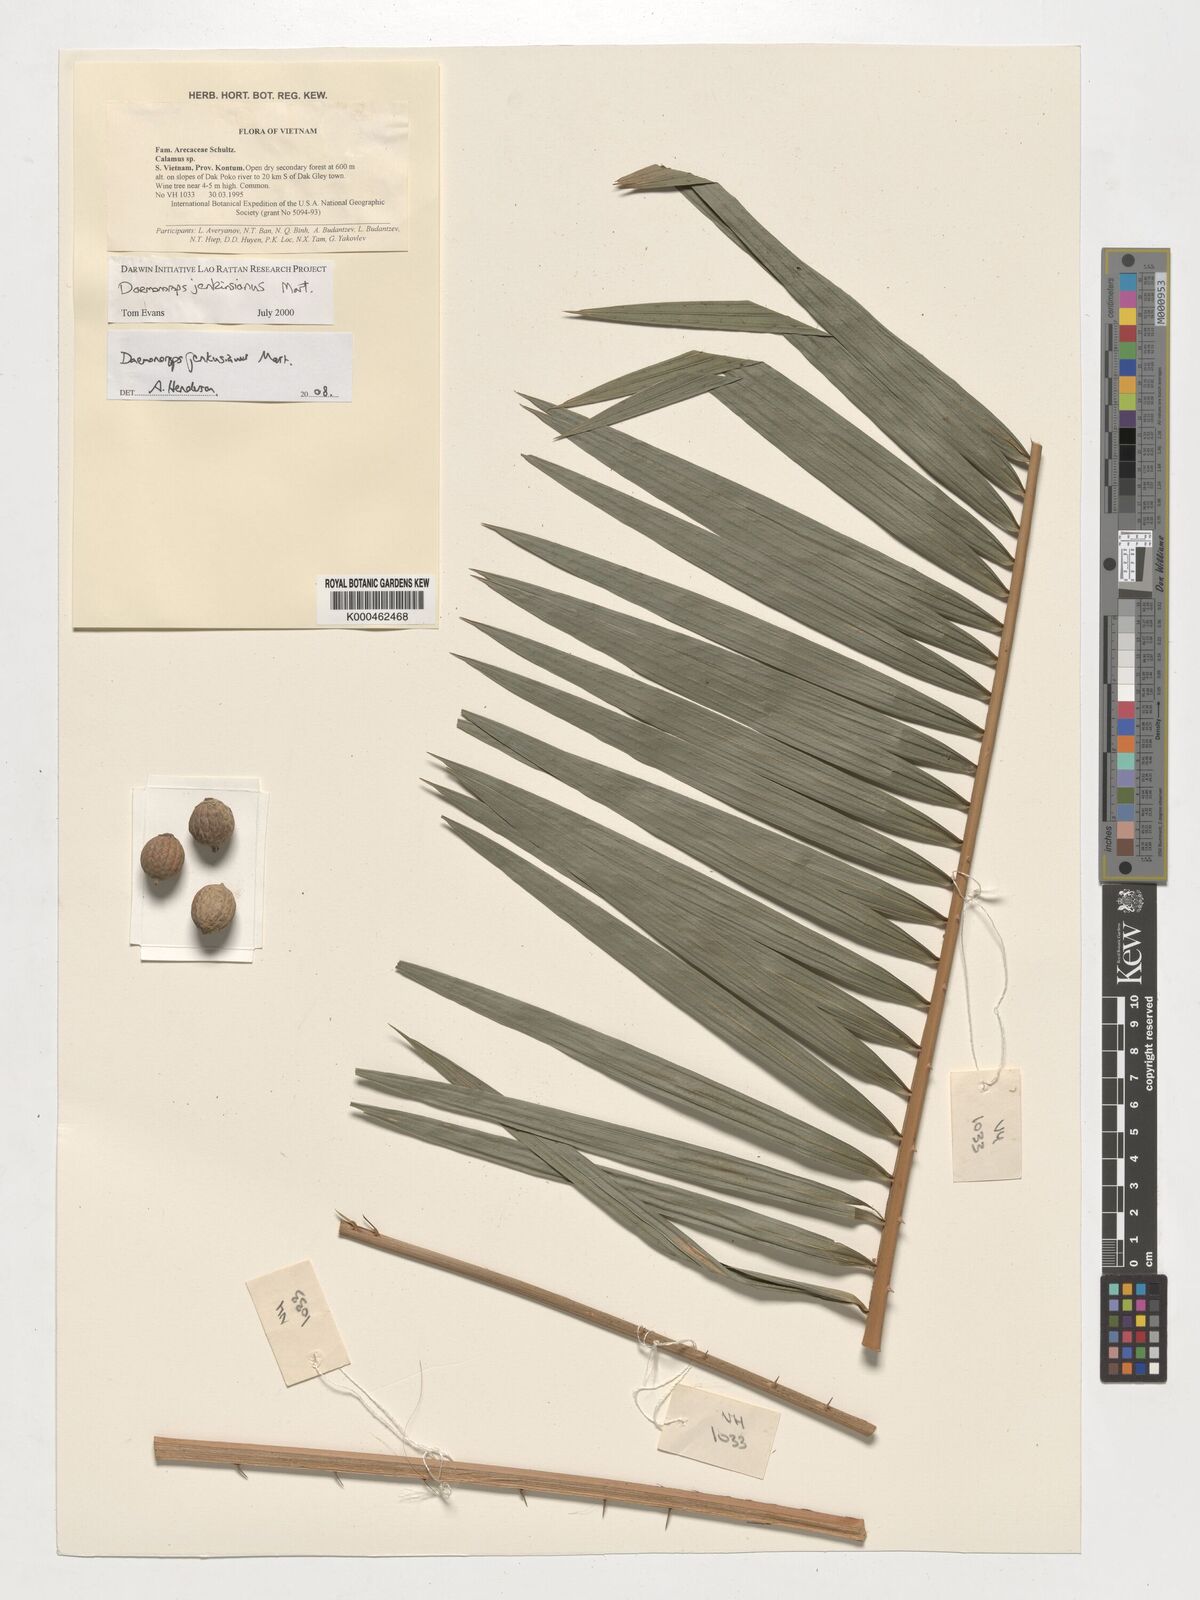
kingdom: Plantae
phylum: Tracheophyta
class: Liliopsida
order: Arecales
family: Arecaceae
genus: Calamus
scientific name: Calamus melanochaetes
